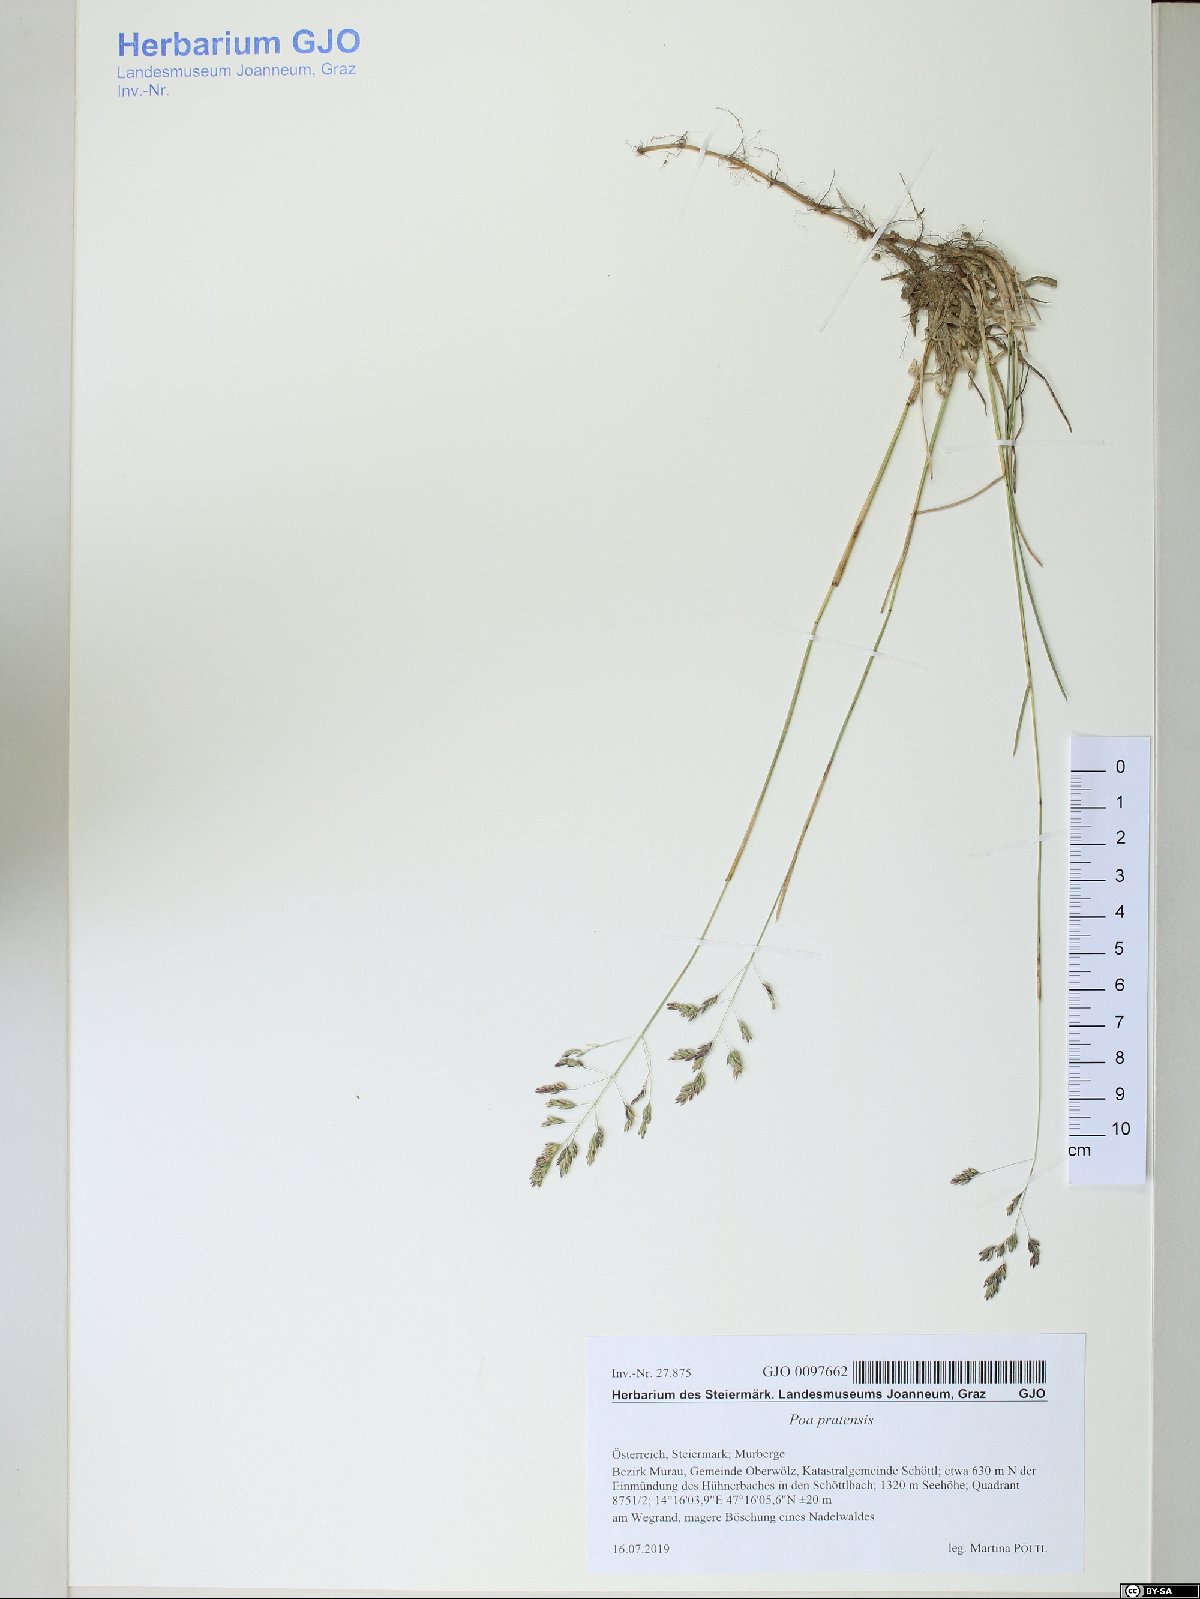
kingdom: Plantae
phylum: Tracheophyta
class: Liliopsida
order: Poales
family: Poaceae
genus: Poa
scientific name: Poa pratensis
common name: Kentucky bluegrass
